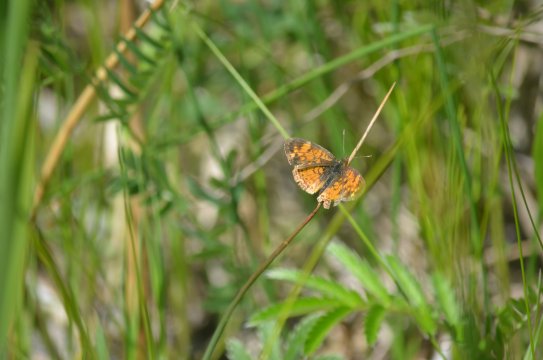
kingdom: Animalia
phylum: Arthropoda
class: Insecta
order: Lepidoptera
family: Nymphalidae
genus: Phyciodes
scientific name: Phyciodes tharos
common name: Northern Crescent
